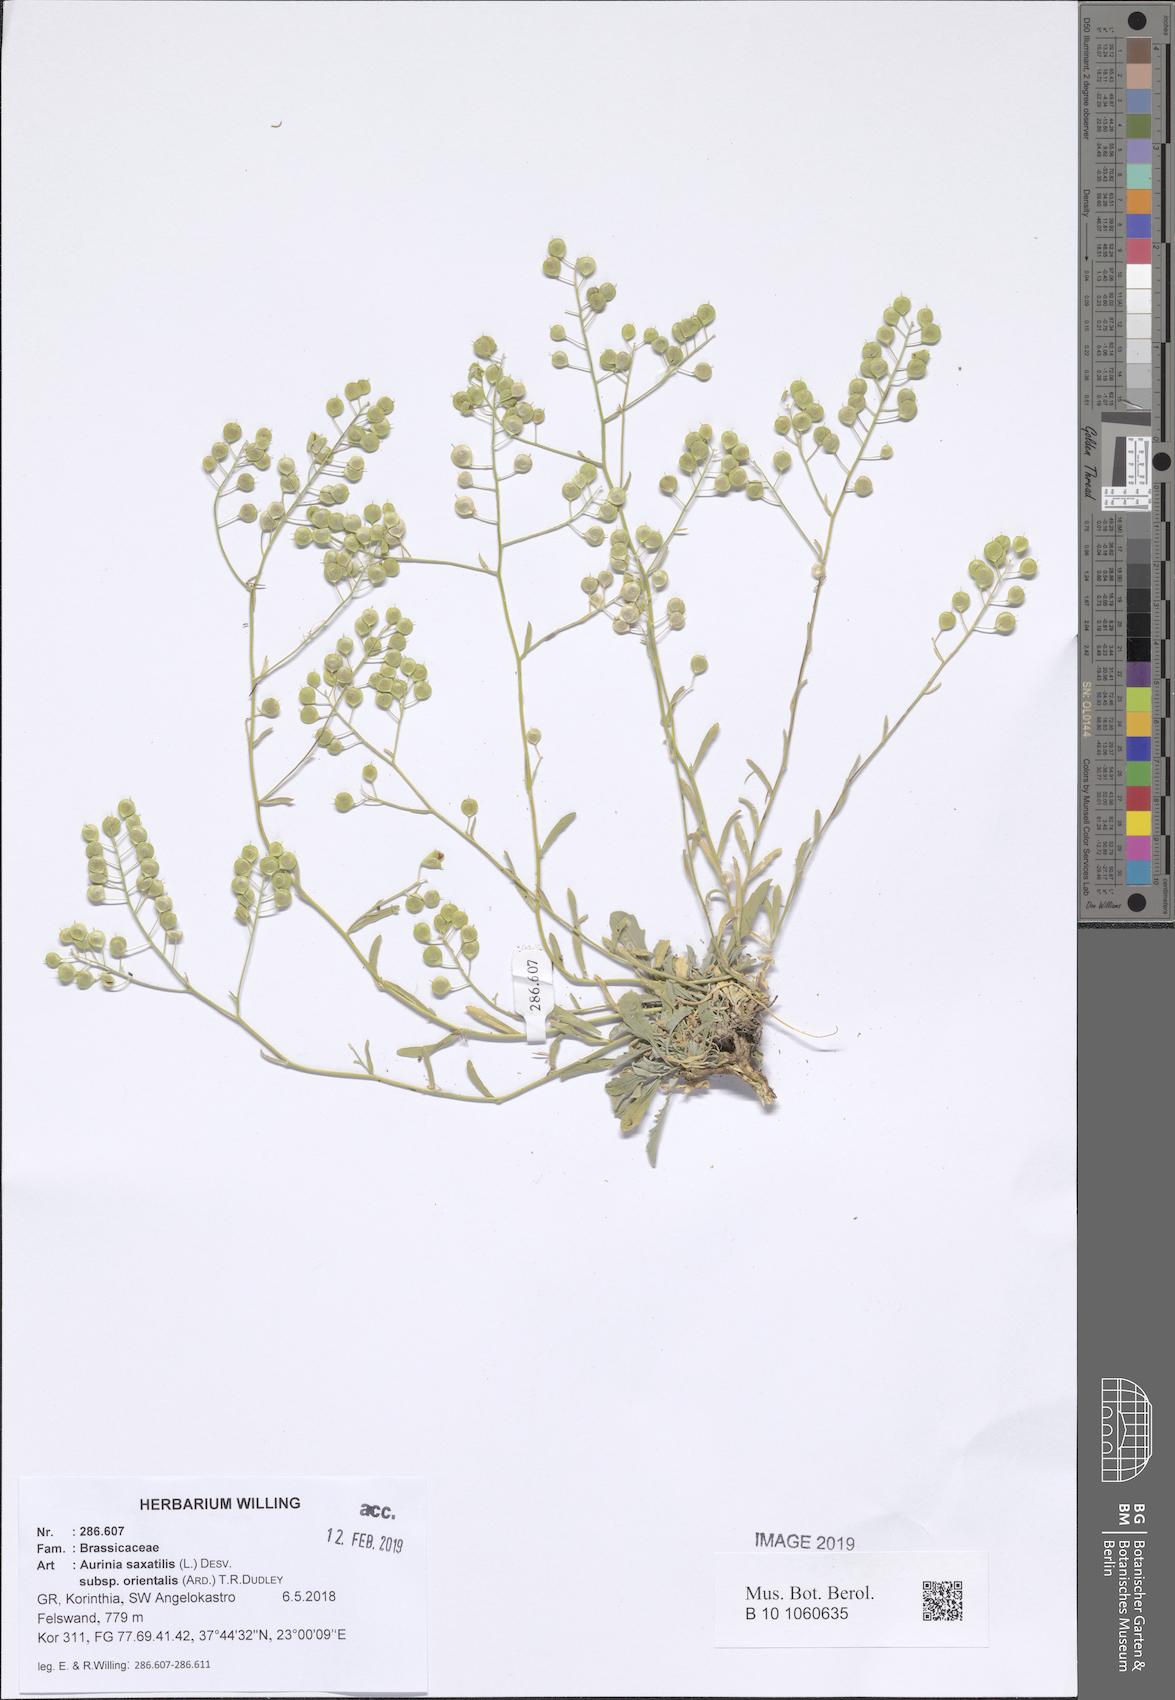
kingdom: Plantae
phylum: Tracheophyta
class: Magnoliopsida
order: Brassicales
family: Brassicaceae
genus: Aurinia
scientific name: Aurinia saxatilis
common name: Golden-tuft alyssum
